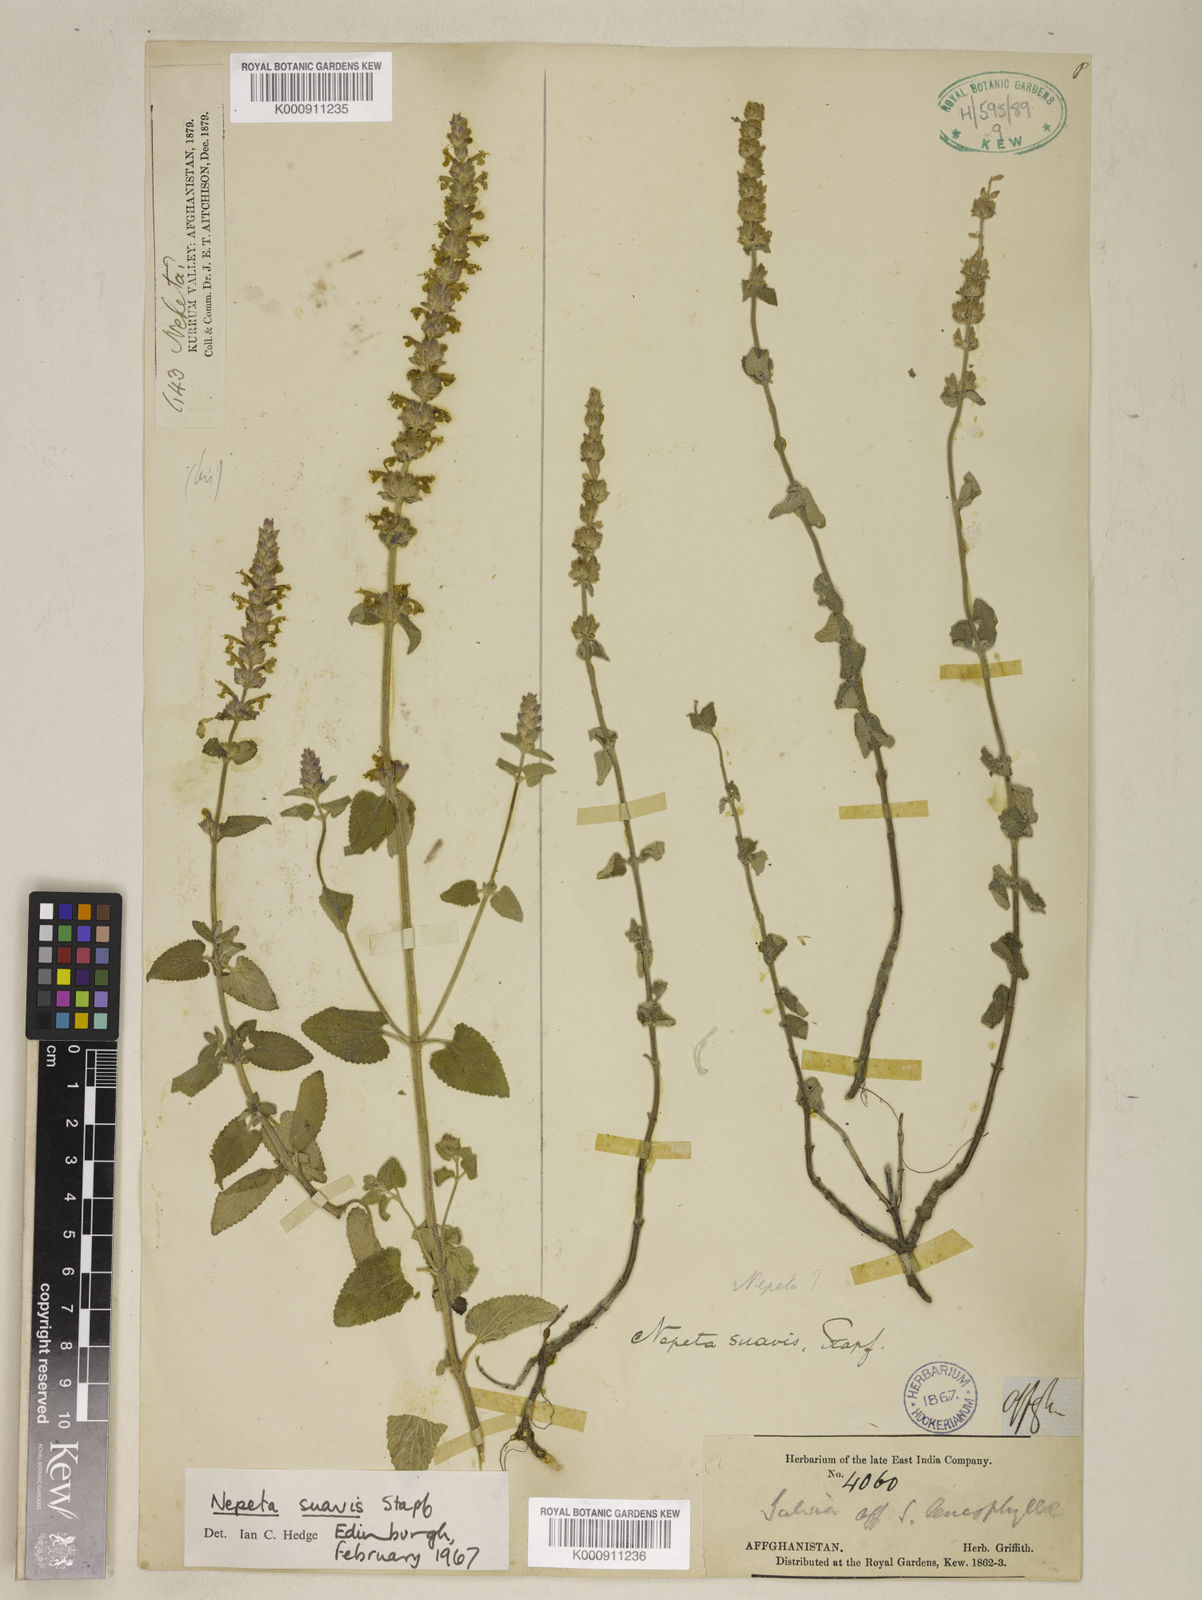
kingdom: Plantae
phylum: Tracheophyta
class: Magnoliopsida
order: Lamiales
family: Lamiaceae
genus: Nepeta
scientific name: Nepeta suavis
